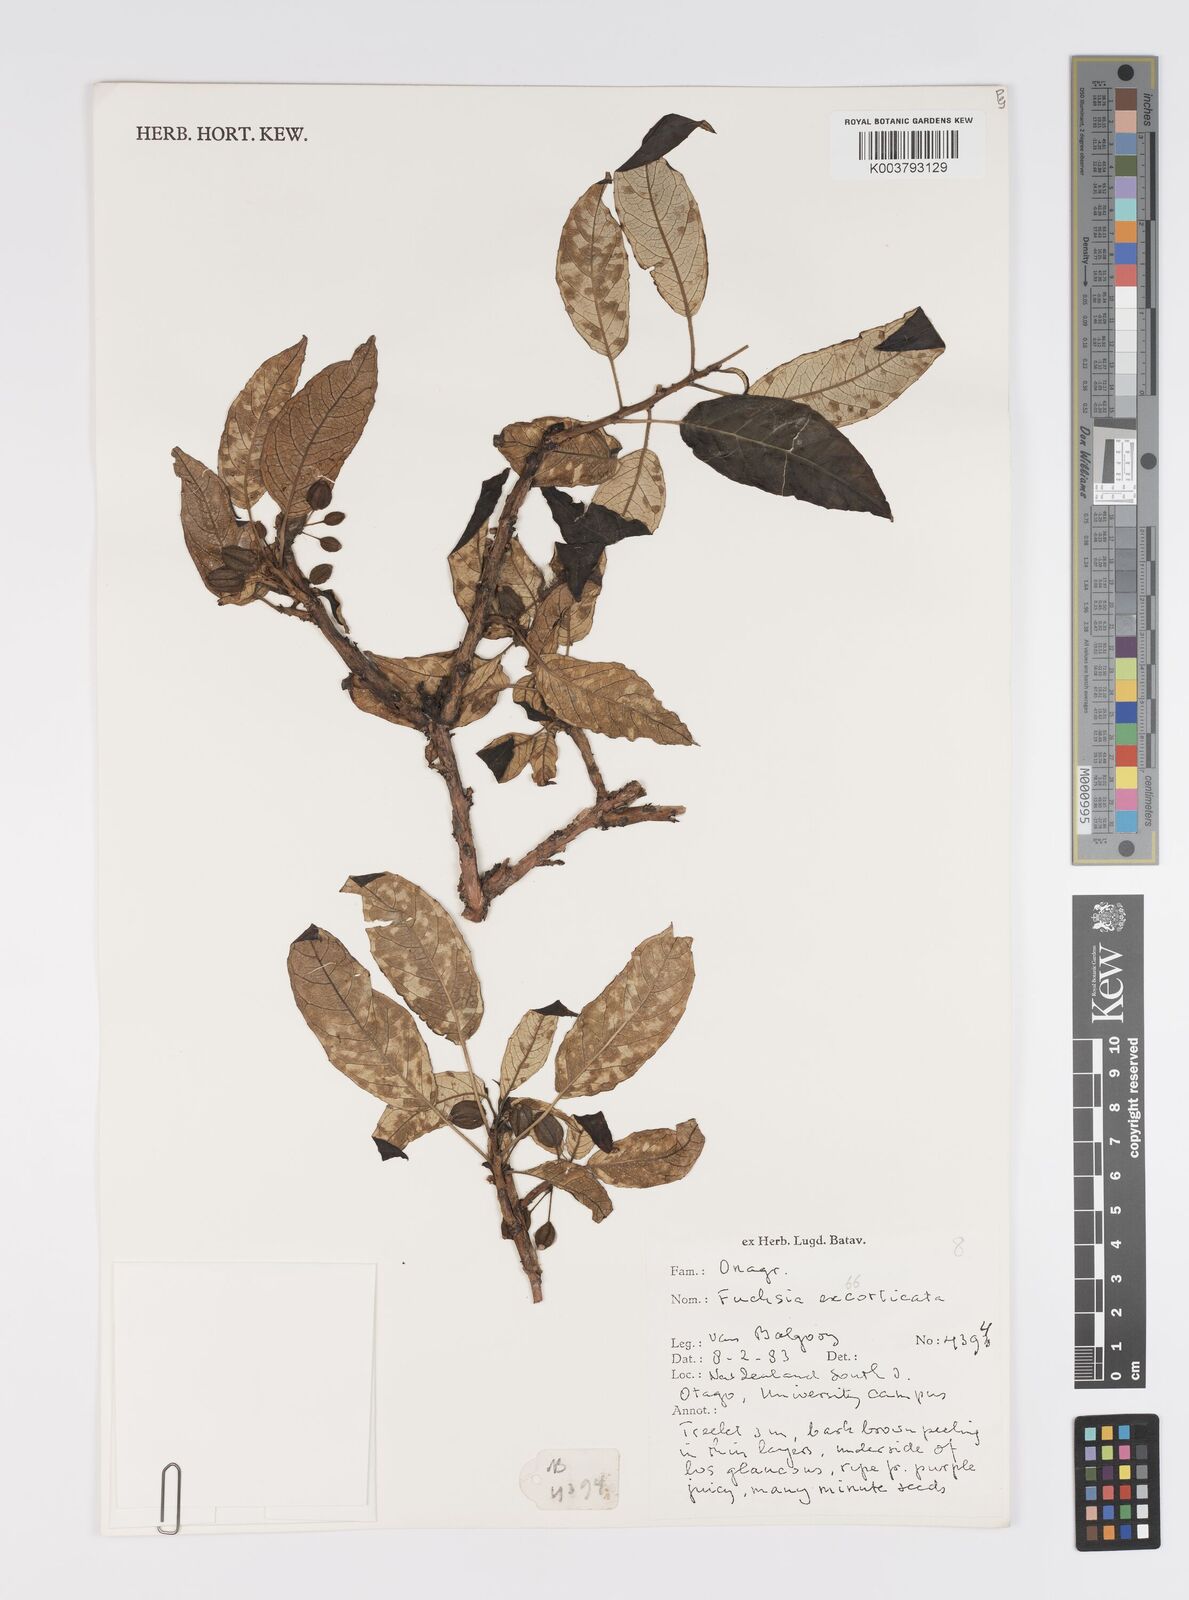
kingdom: Plantae
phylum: Tracheophyta
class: Magnoliopsida
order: Myrtales
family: Onagraceae
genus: Fuchsia
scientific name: Fuchsia excorticata
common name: Tree fuchsia
